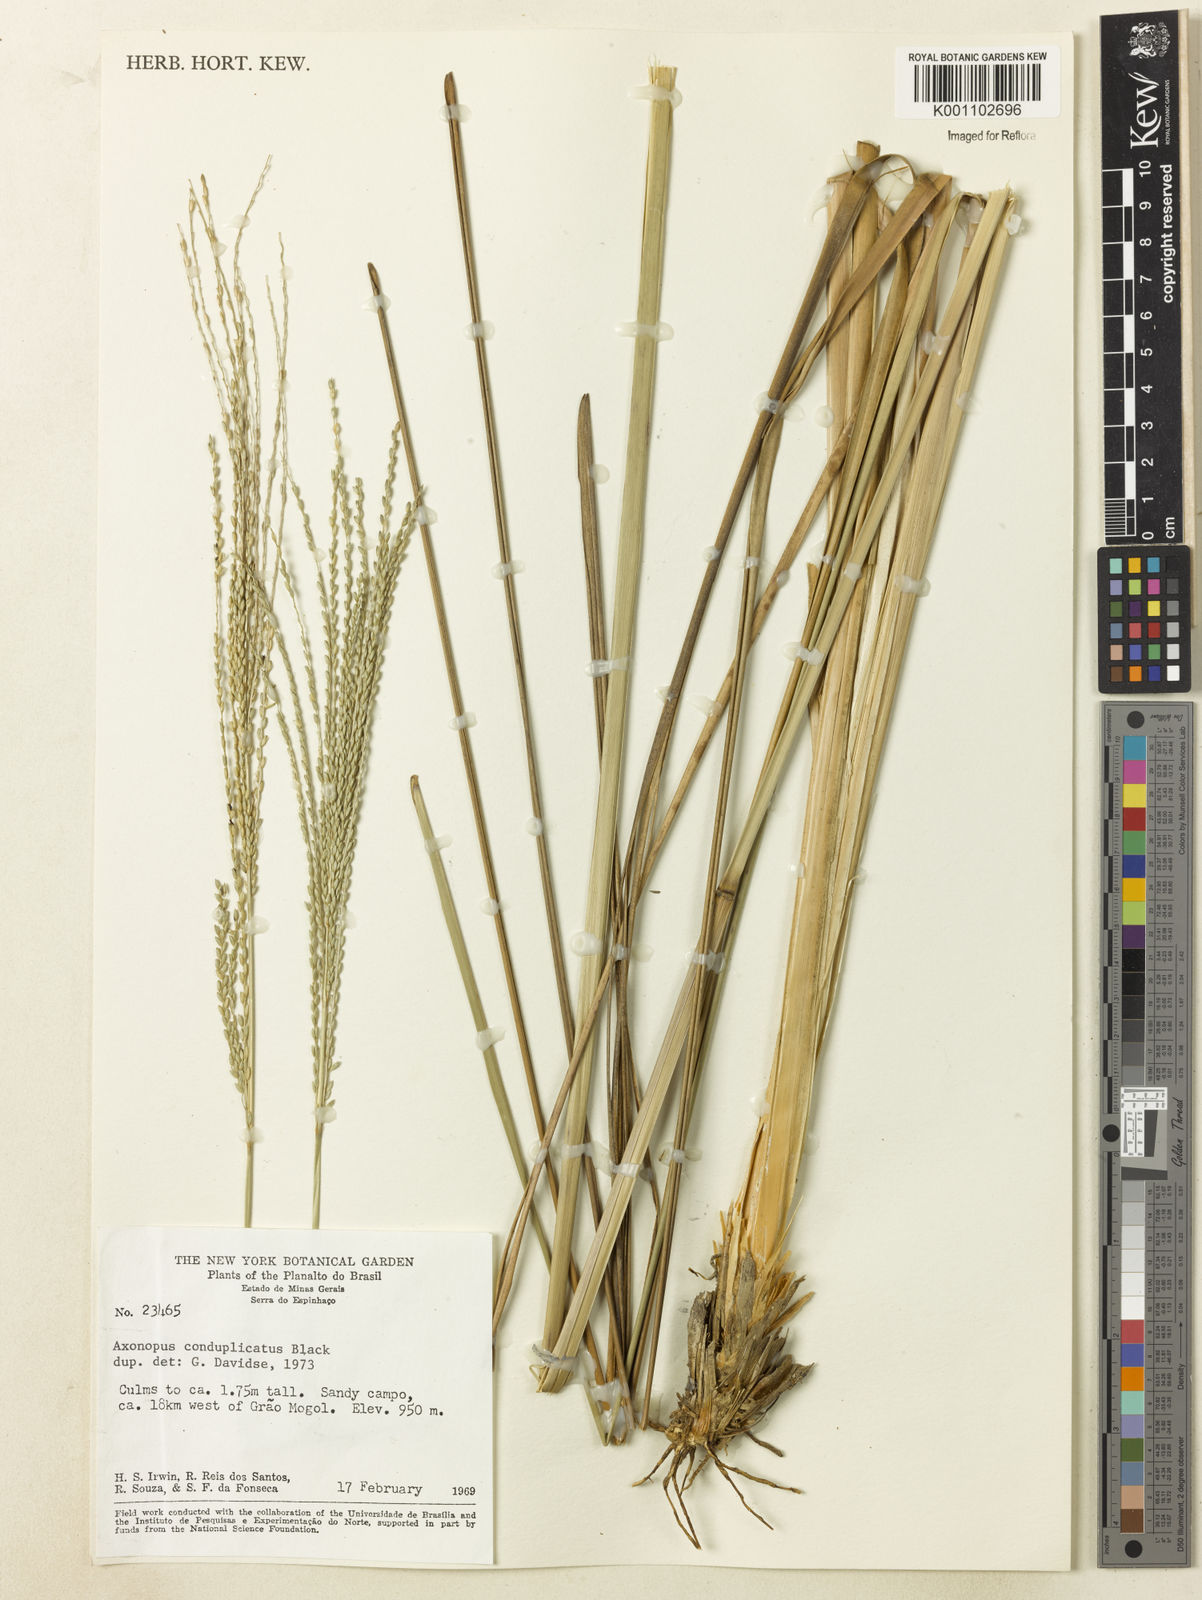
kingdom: Plantae
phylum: Tracheophyta
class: Liliopsida
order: Poales
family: Poaceae
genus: Axonopus
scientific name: Axonopus laxiflorus
